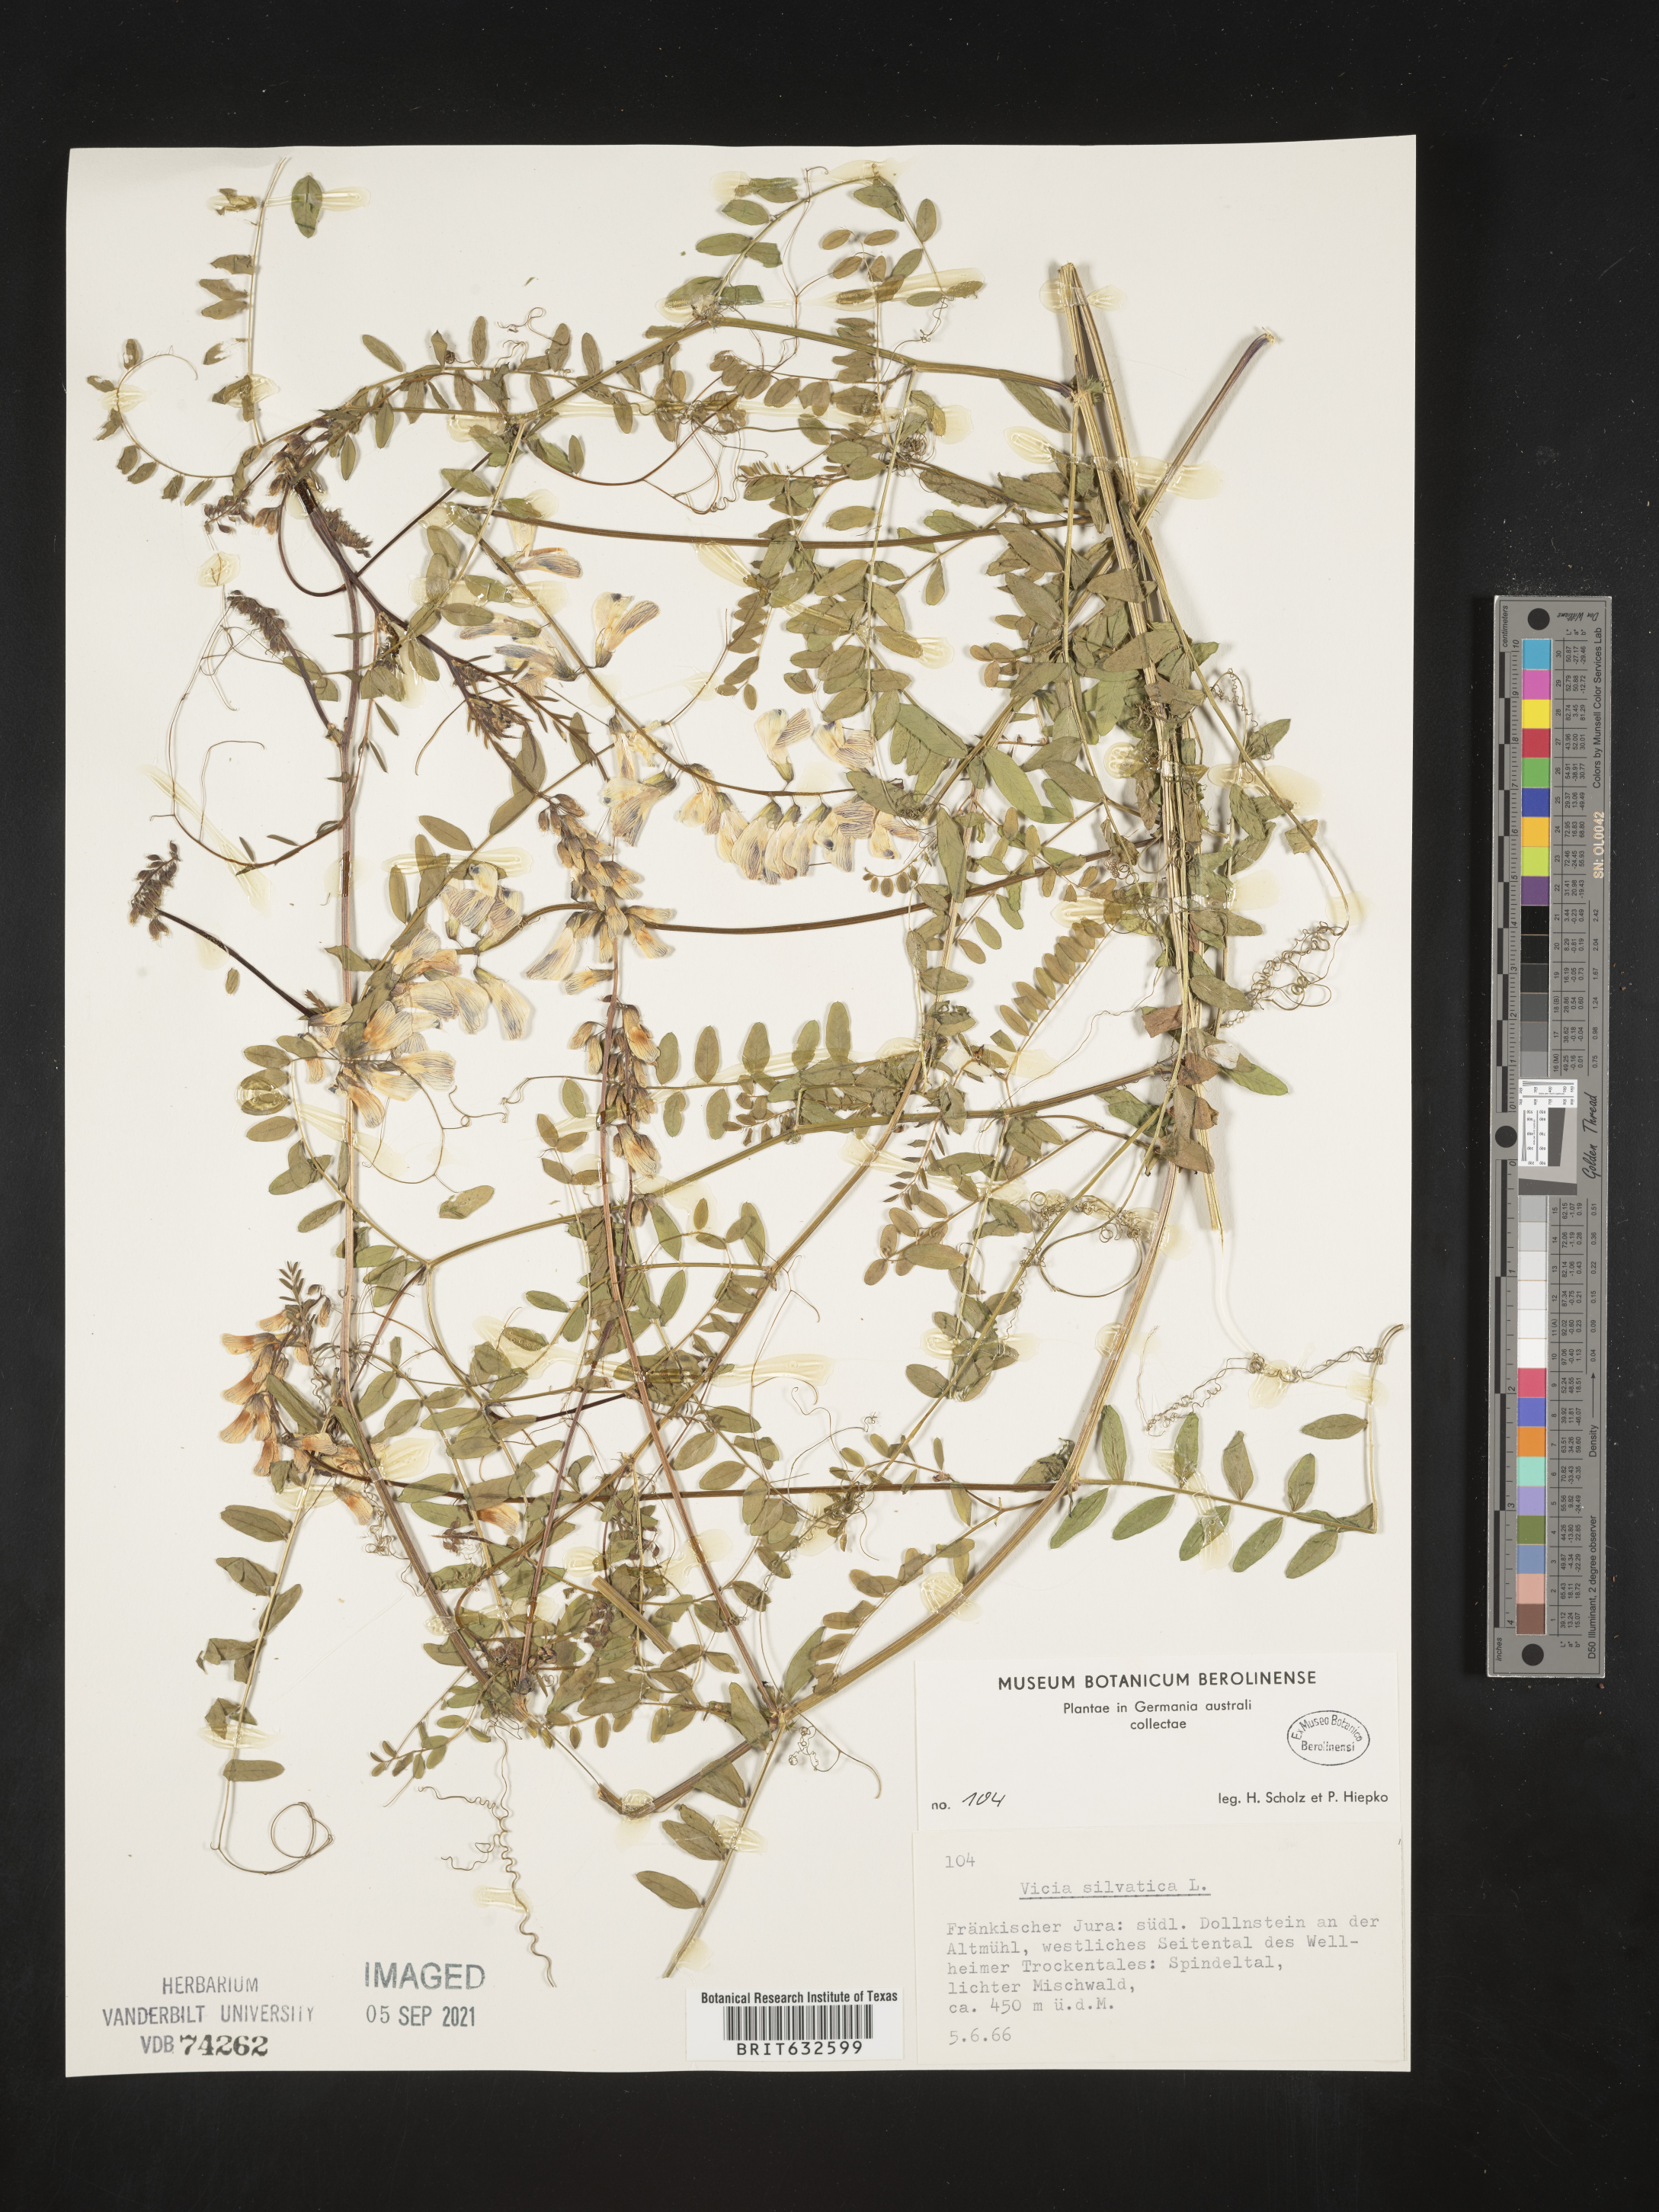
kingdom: Plantae
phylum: Tracheophyta
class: Magnoliopsida
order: Fabales
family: Fabaceae
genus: Vicia
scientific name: Vicia
